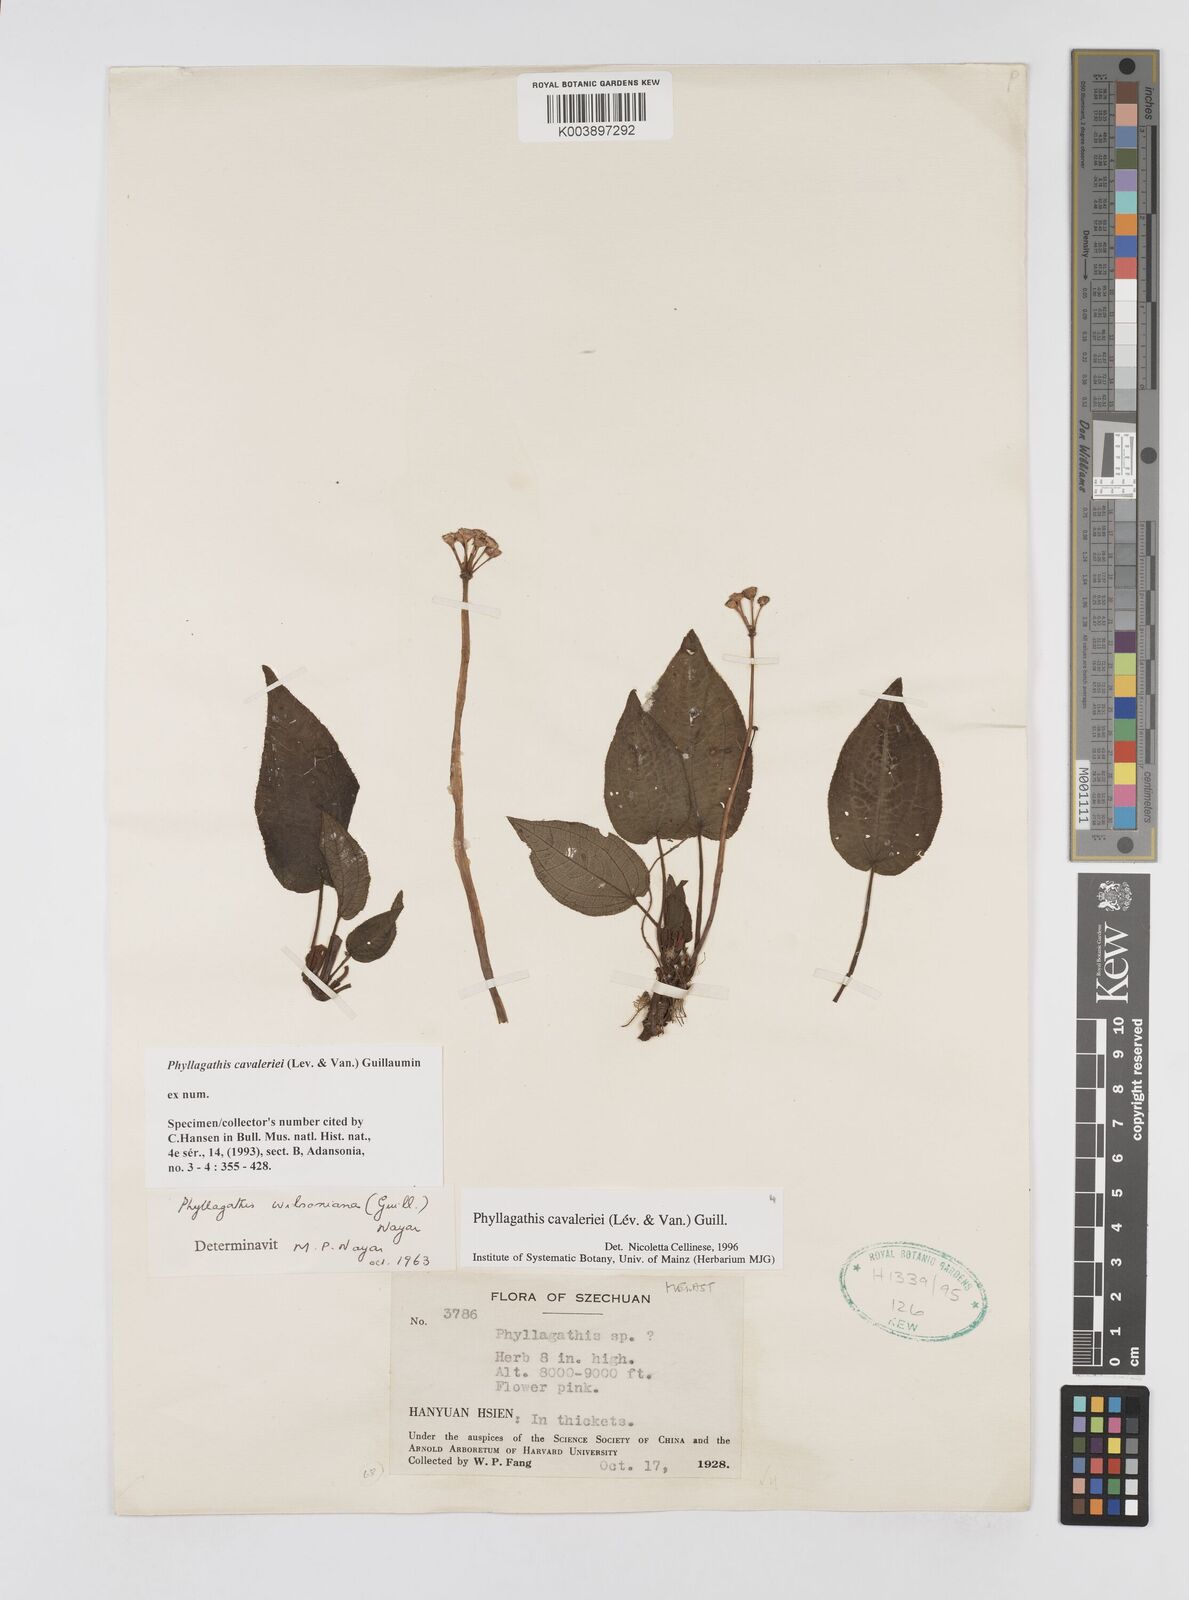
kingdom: Plantae
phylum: Tracheophyta
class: Magnoliopsida
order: Myrtales
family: Melastomataceae
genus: Phyllagathis
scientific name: Phyllagathis cavaleriei
